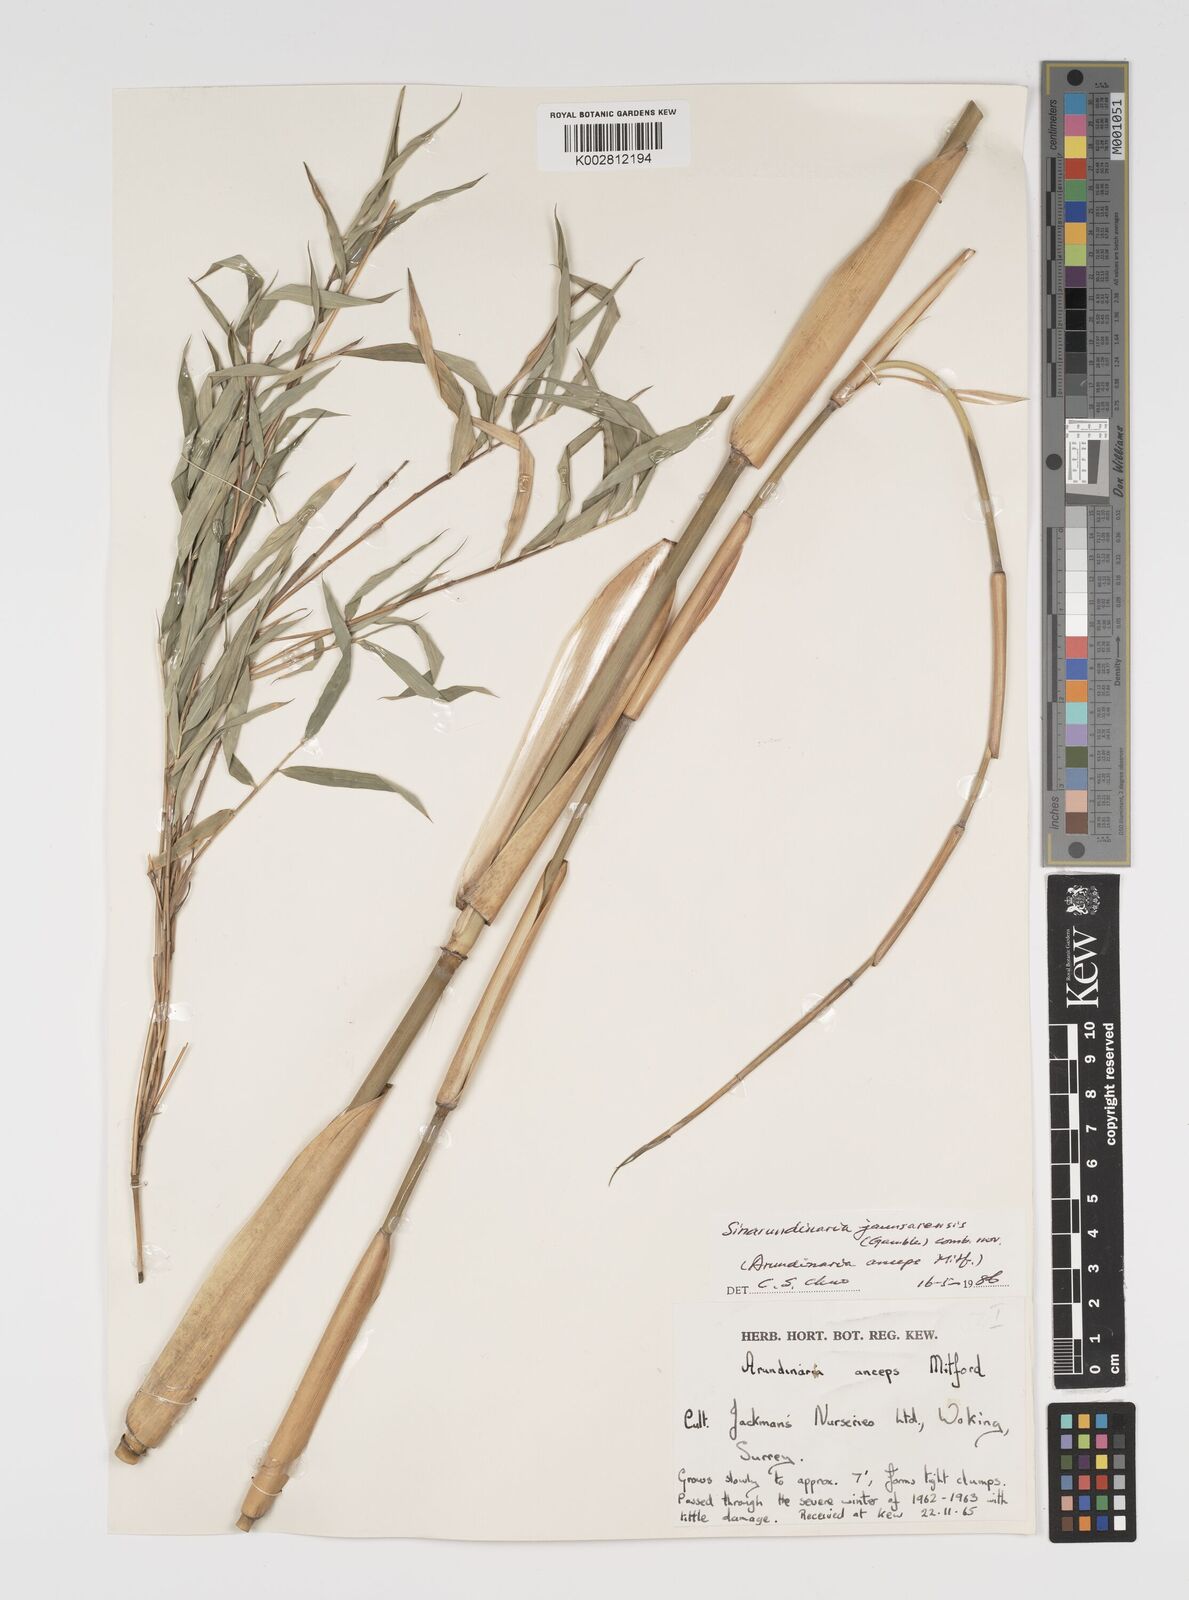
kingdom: Plantae
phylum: Tracheophyta
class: Liliopsida
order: Poales
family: Poaceae
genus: Yushania
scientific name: Yushania anceps
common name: Indian fountain-bamboo
